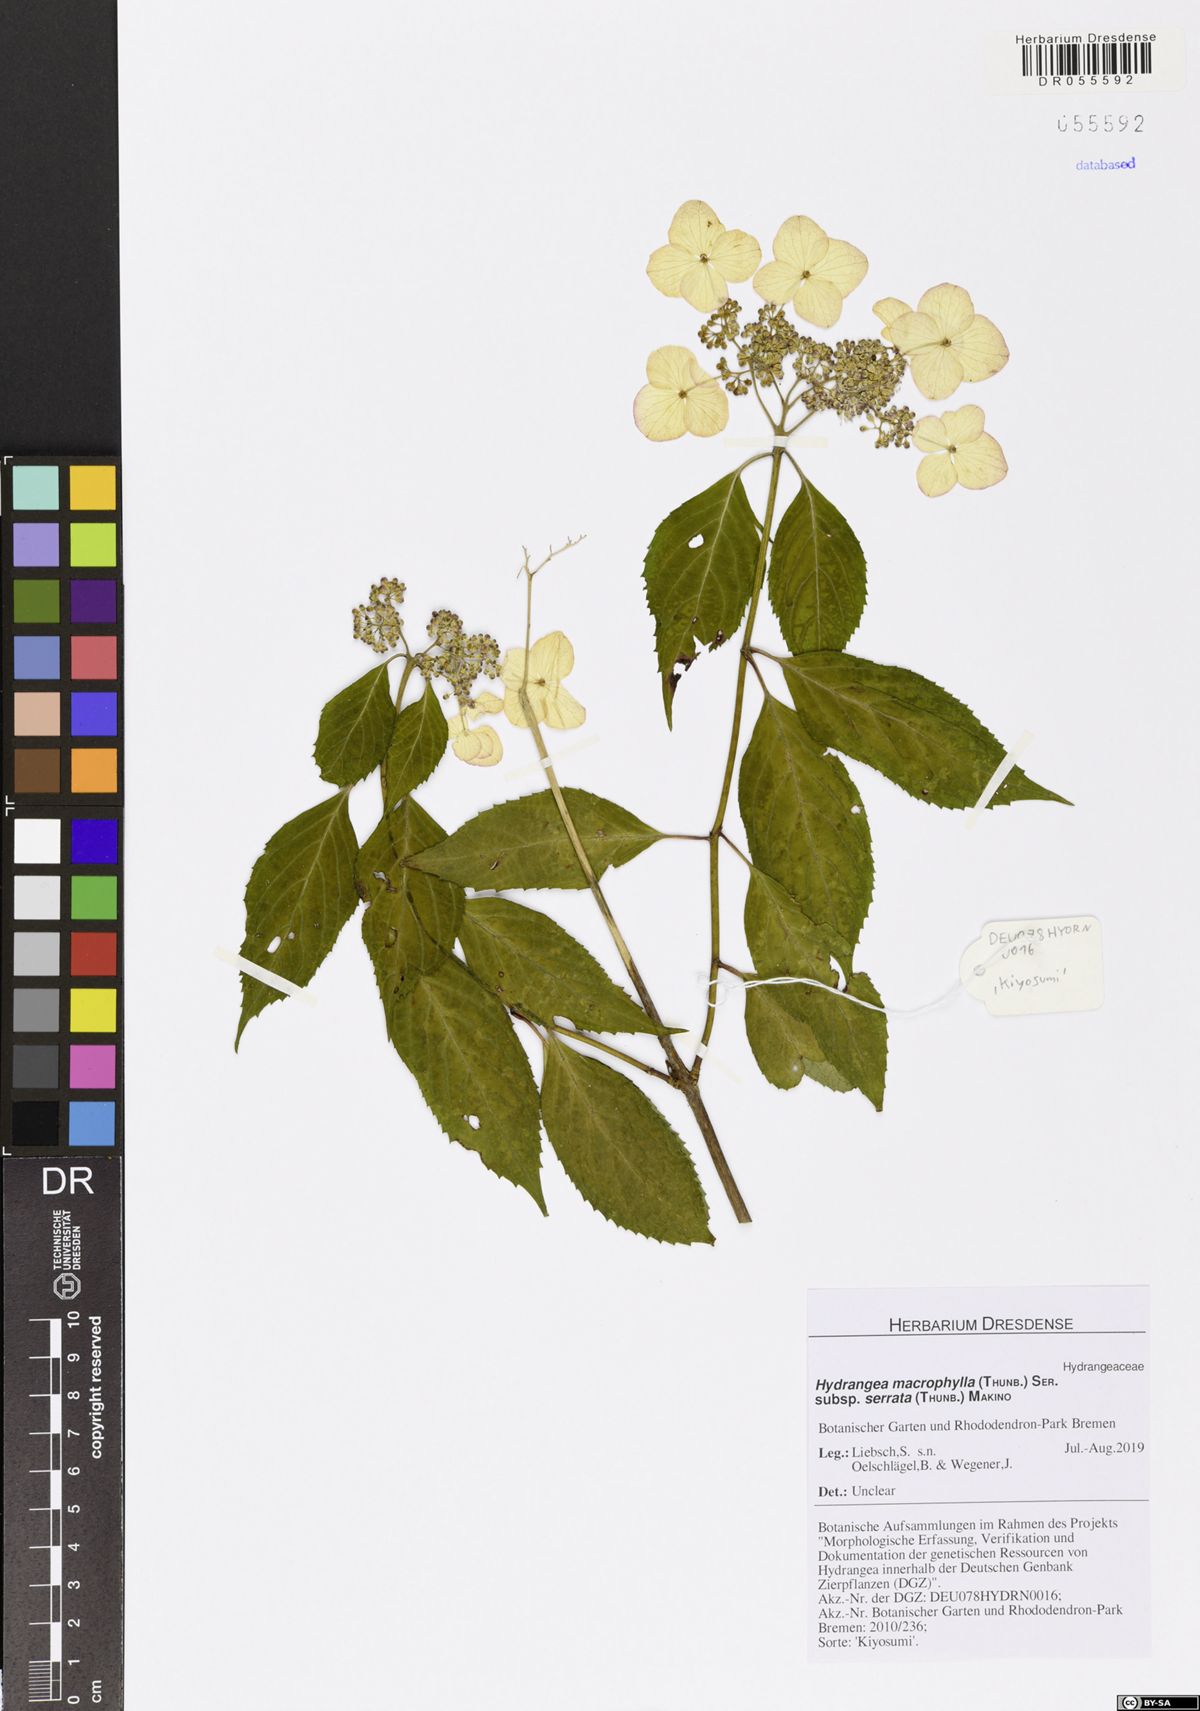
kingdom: Plantae
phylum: Tracheophyta
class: Magnoliopsida
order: Cornales
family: Hydrangeaceae
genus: Hydrangea
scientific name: Hydrangea serrata
